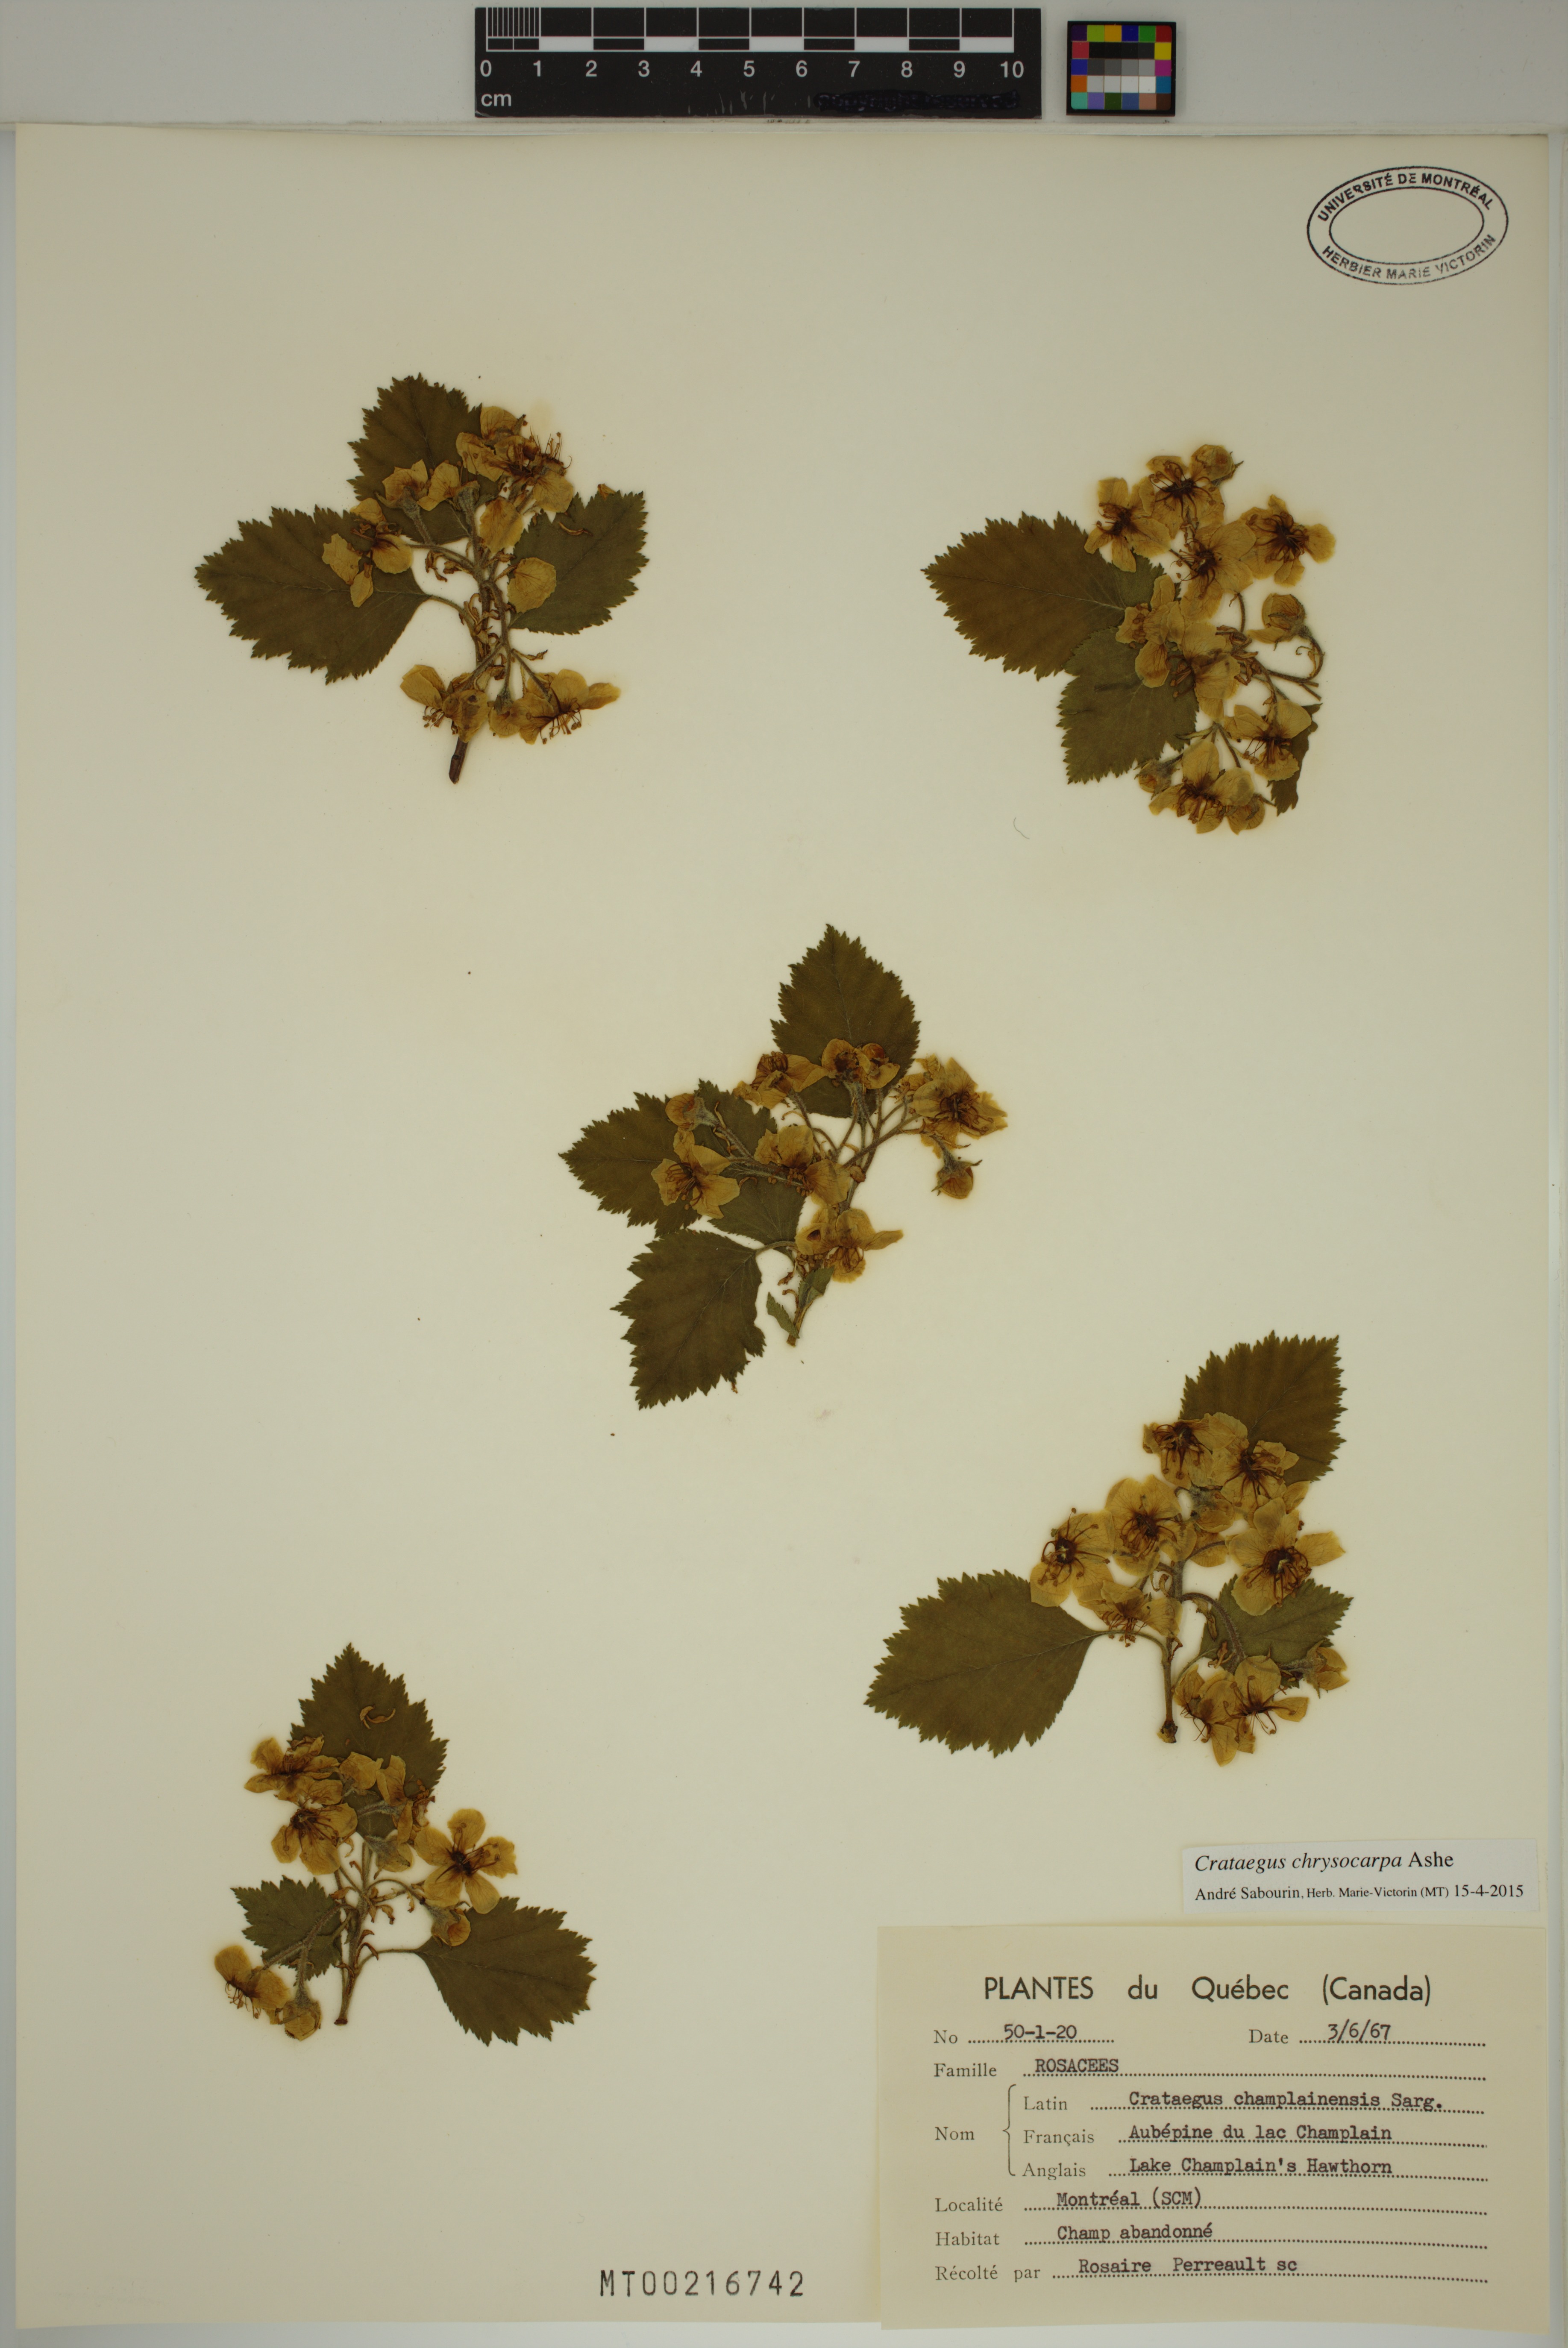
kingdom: Plantae
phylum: Tracheophyta
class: Magnoliopsida
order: Rosales
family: Rosaceae
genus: Crataegus
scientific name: Crataegus chrysocarpa
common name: Fire-berry hawthorn
